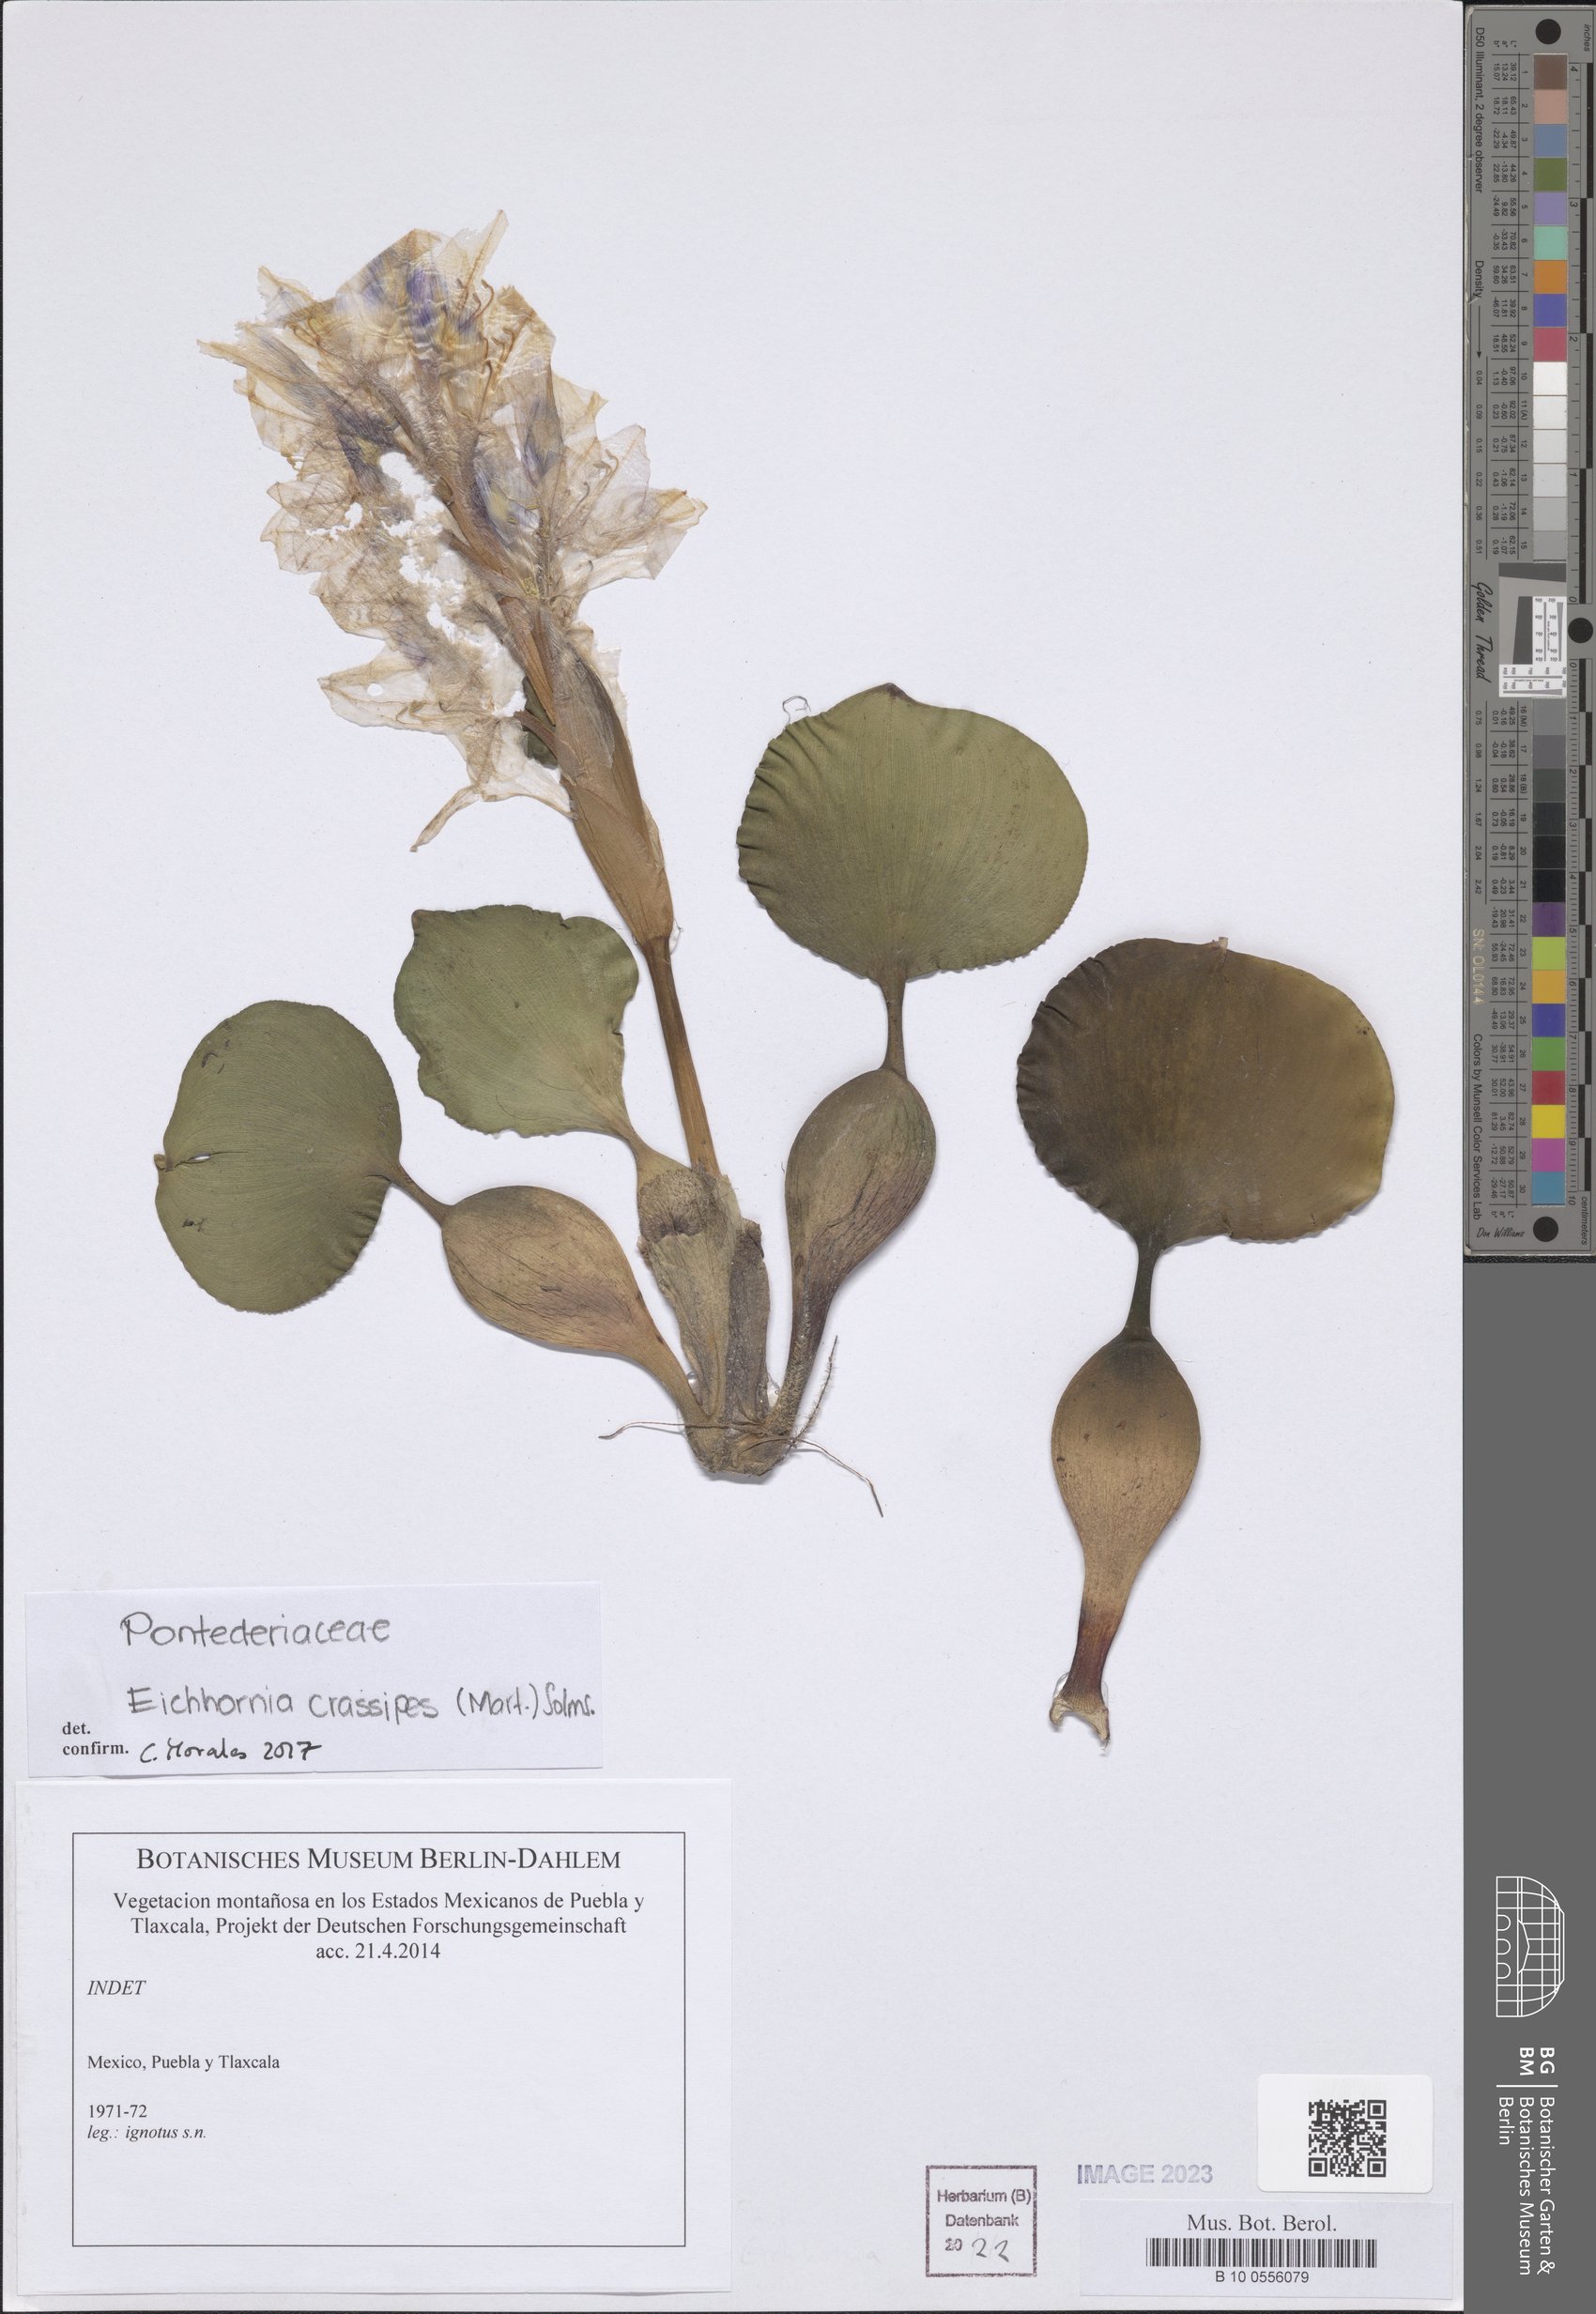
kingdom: Plantae
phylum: Tracheophyta
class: Liliopsida
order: Commelinales
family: Pontederiaceae
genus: Pontederia
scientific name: Pontederia crassipes
